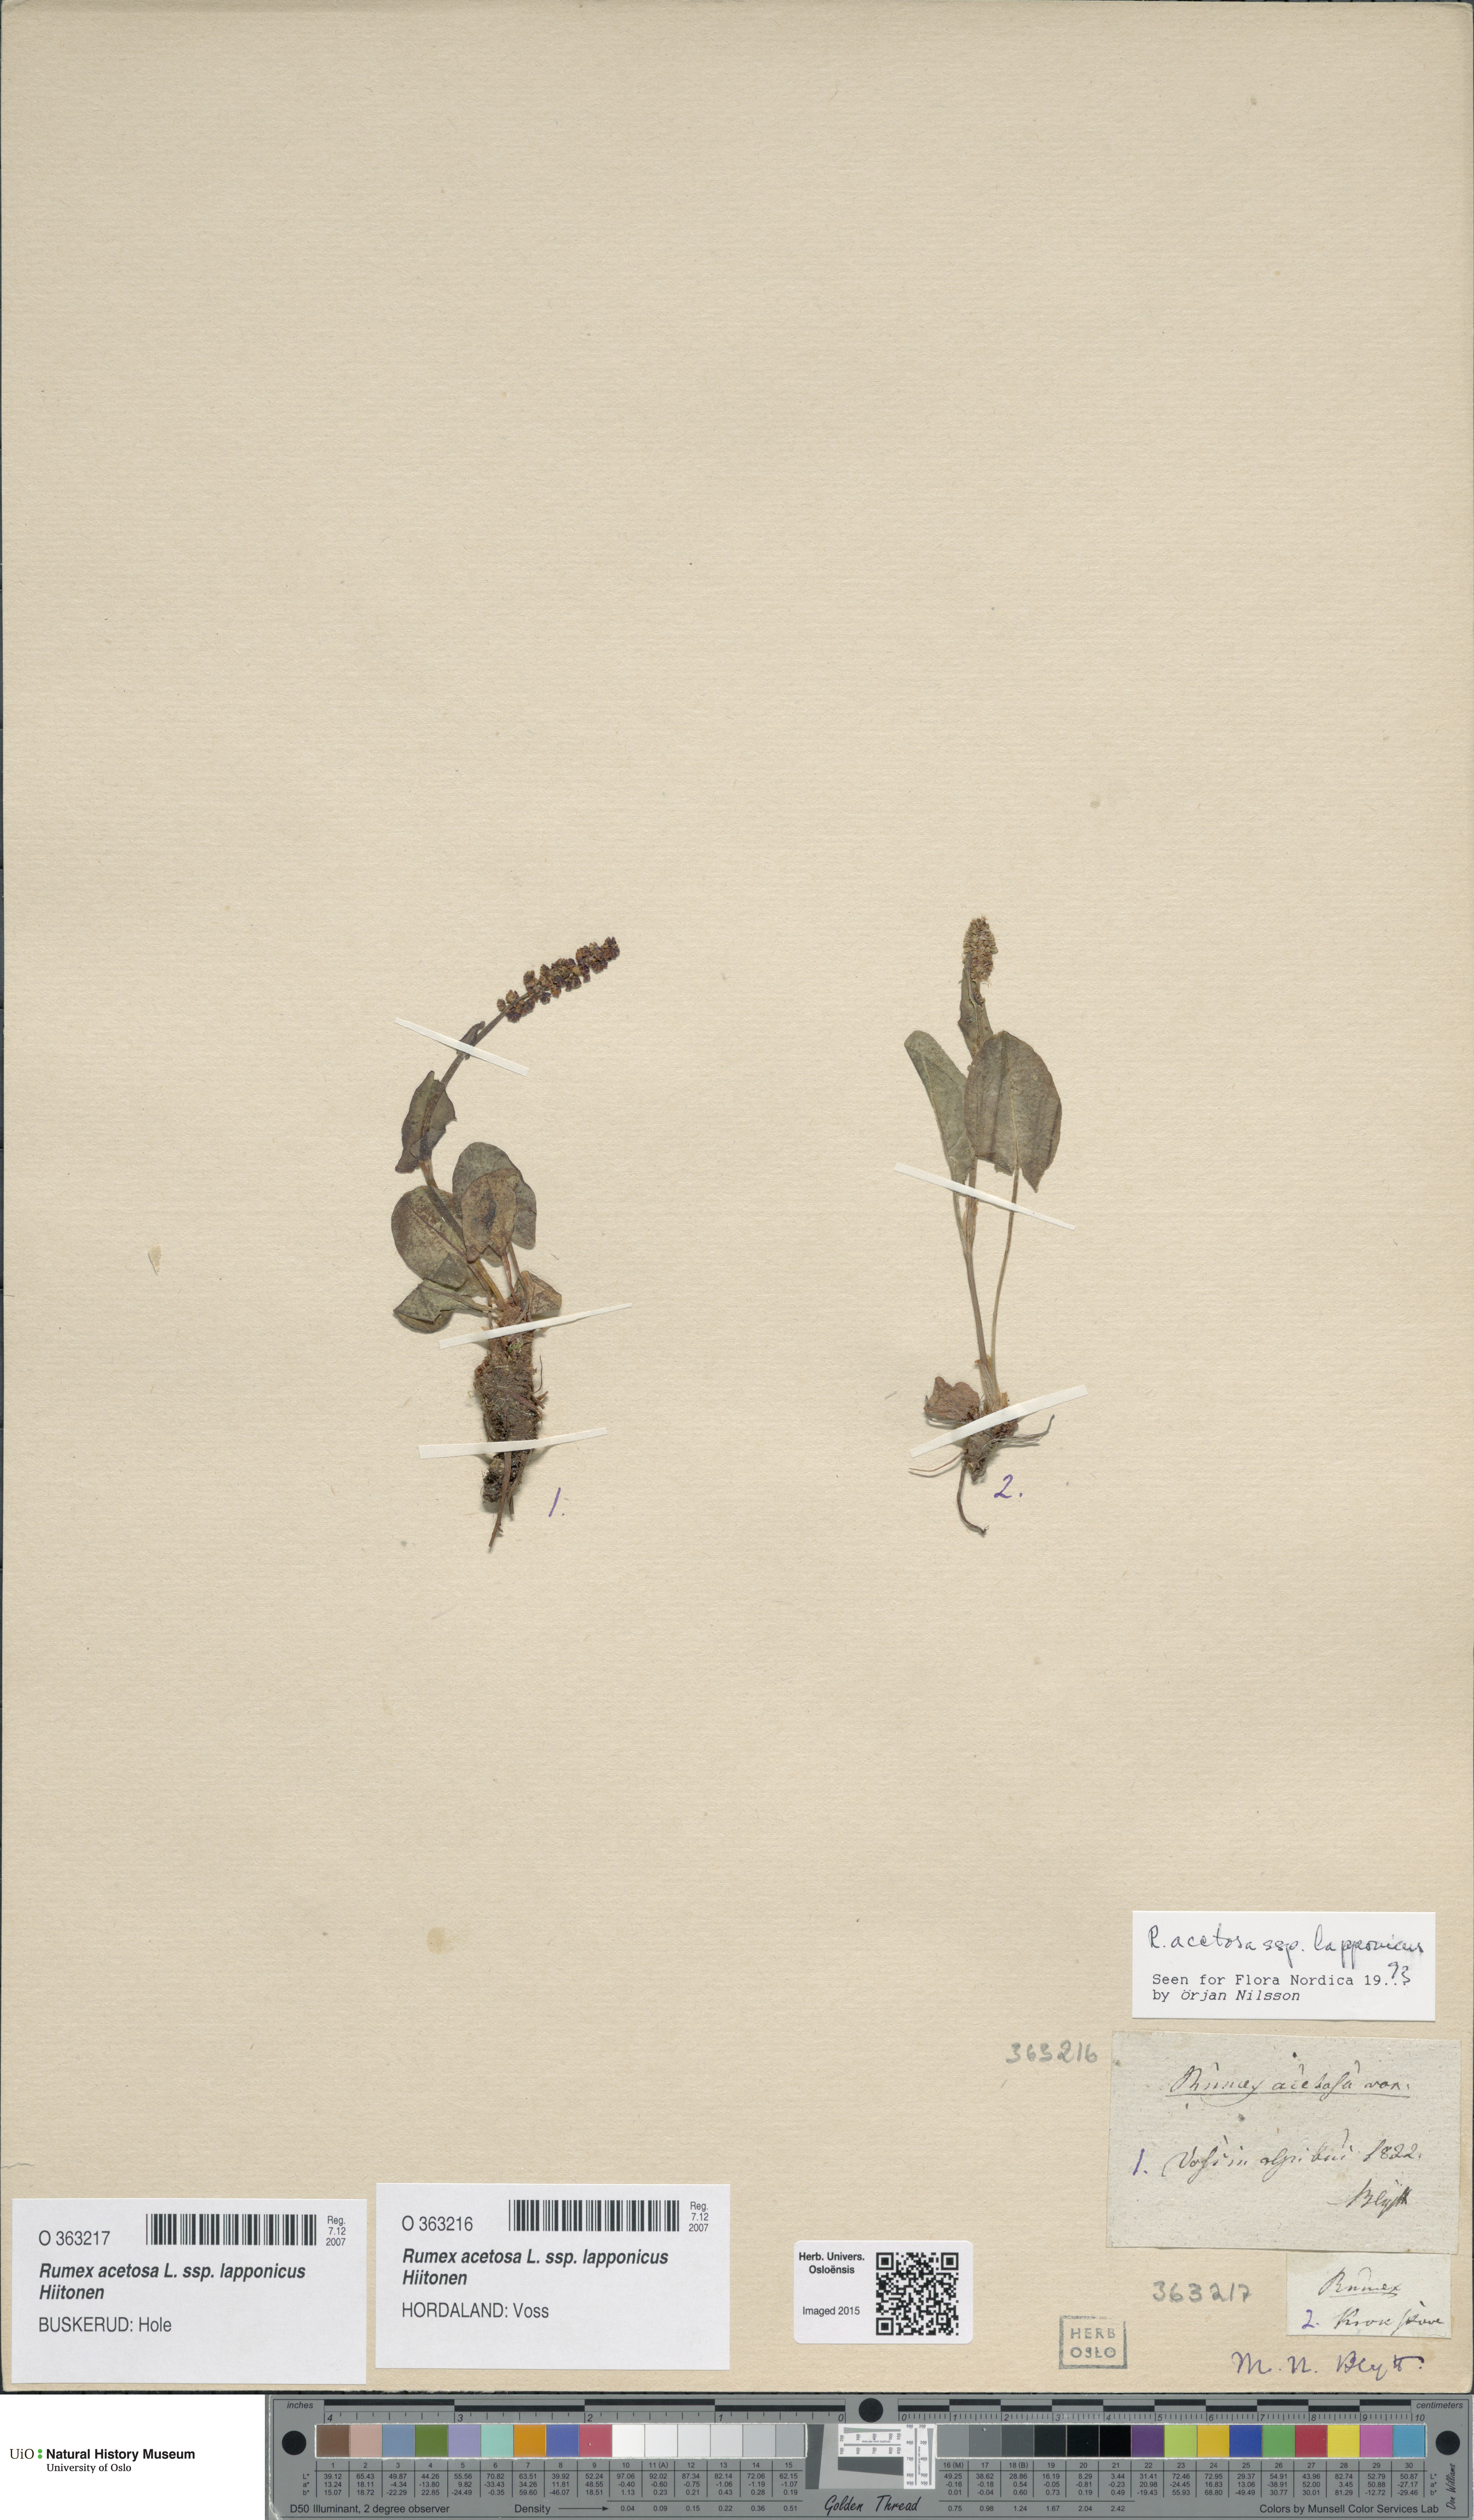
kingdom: Plantae
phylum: Tracheophyta
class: Magnoliopsida
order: Caryophyllales
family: Polygonaceae
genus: Rumex
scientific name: Rumex lapponicus
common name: Lapland mountain sorrel
